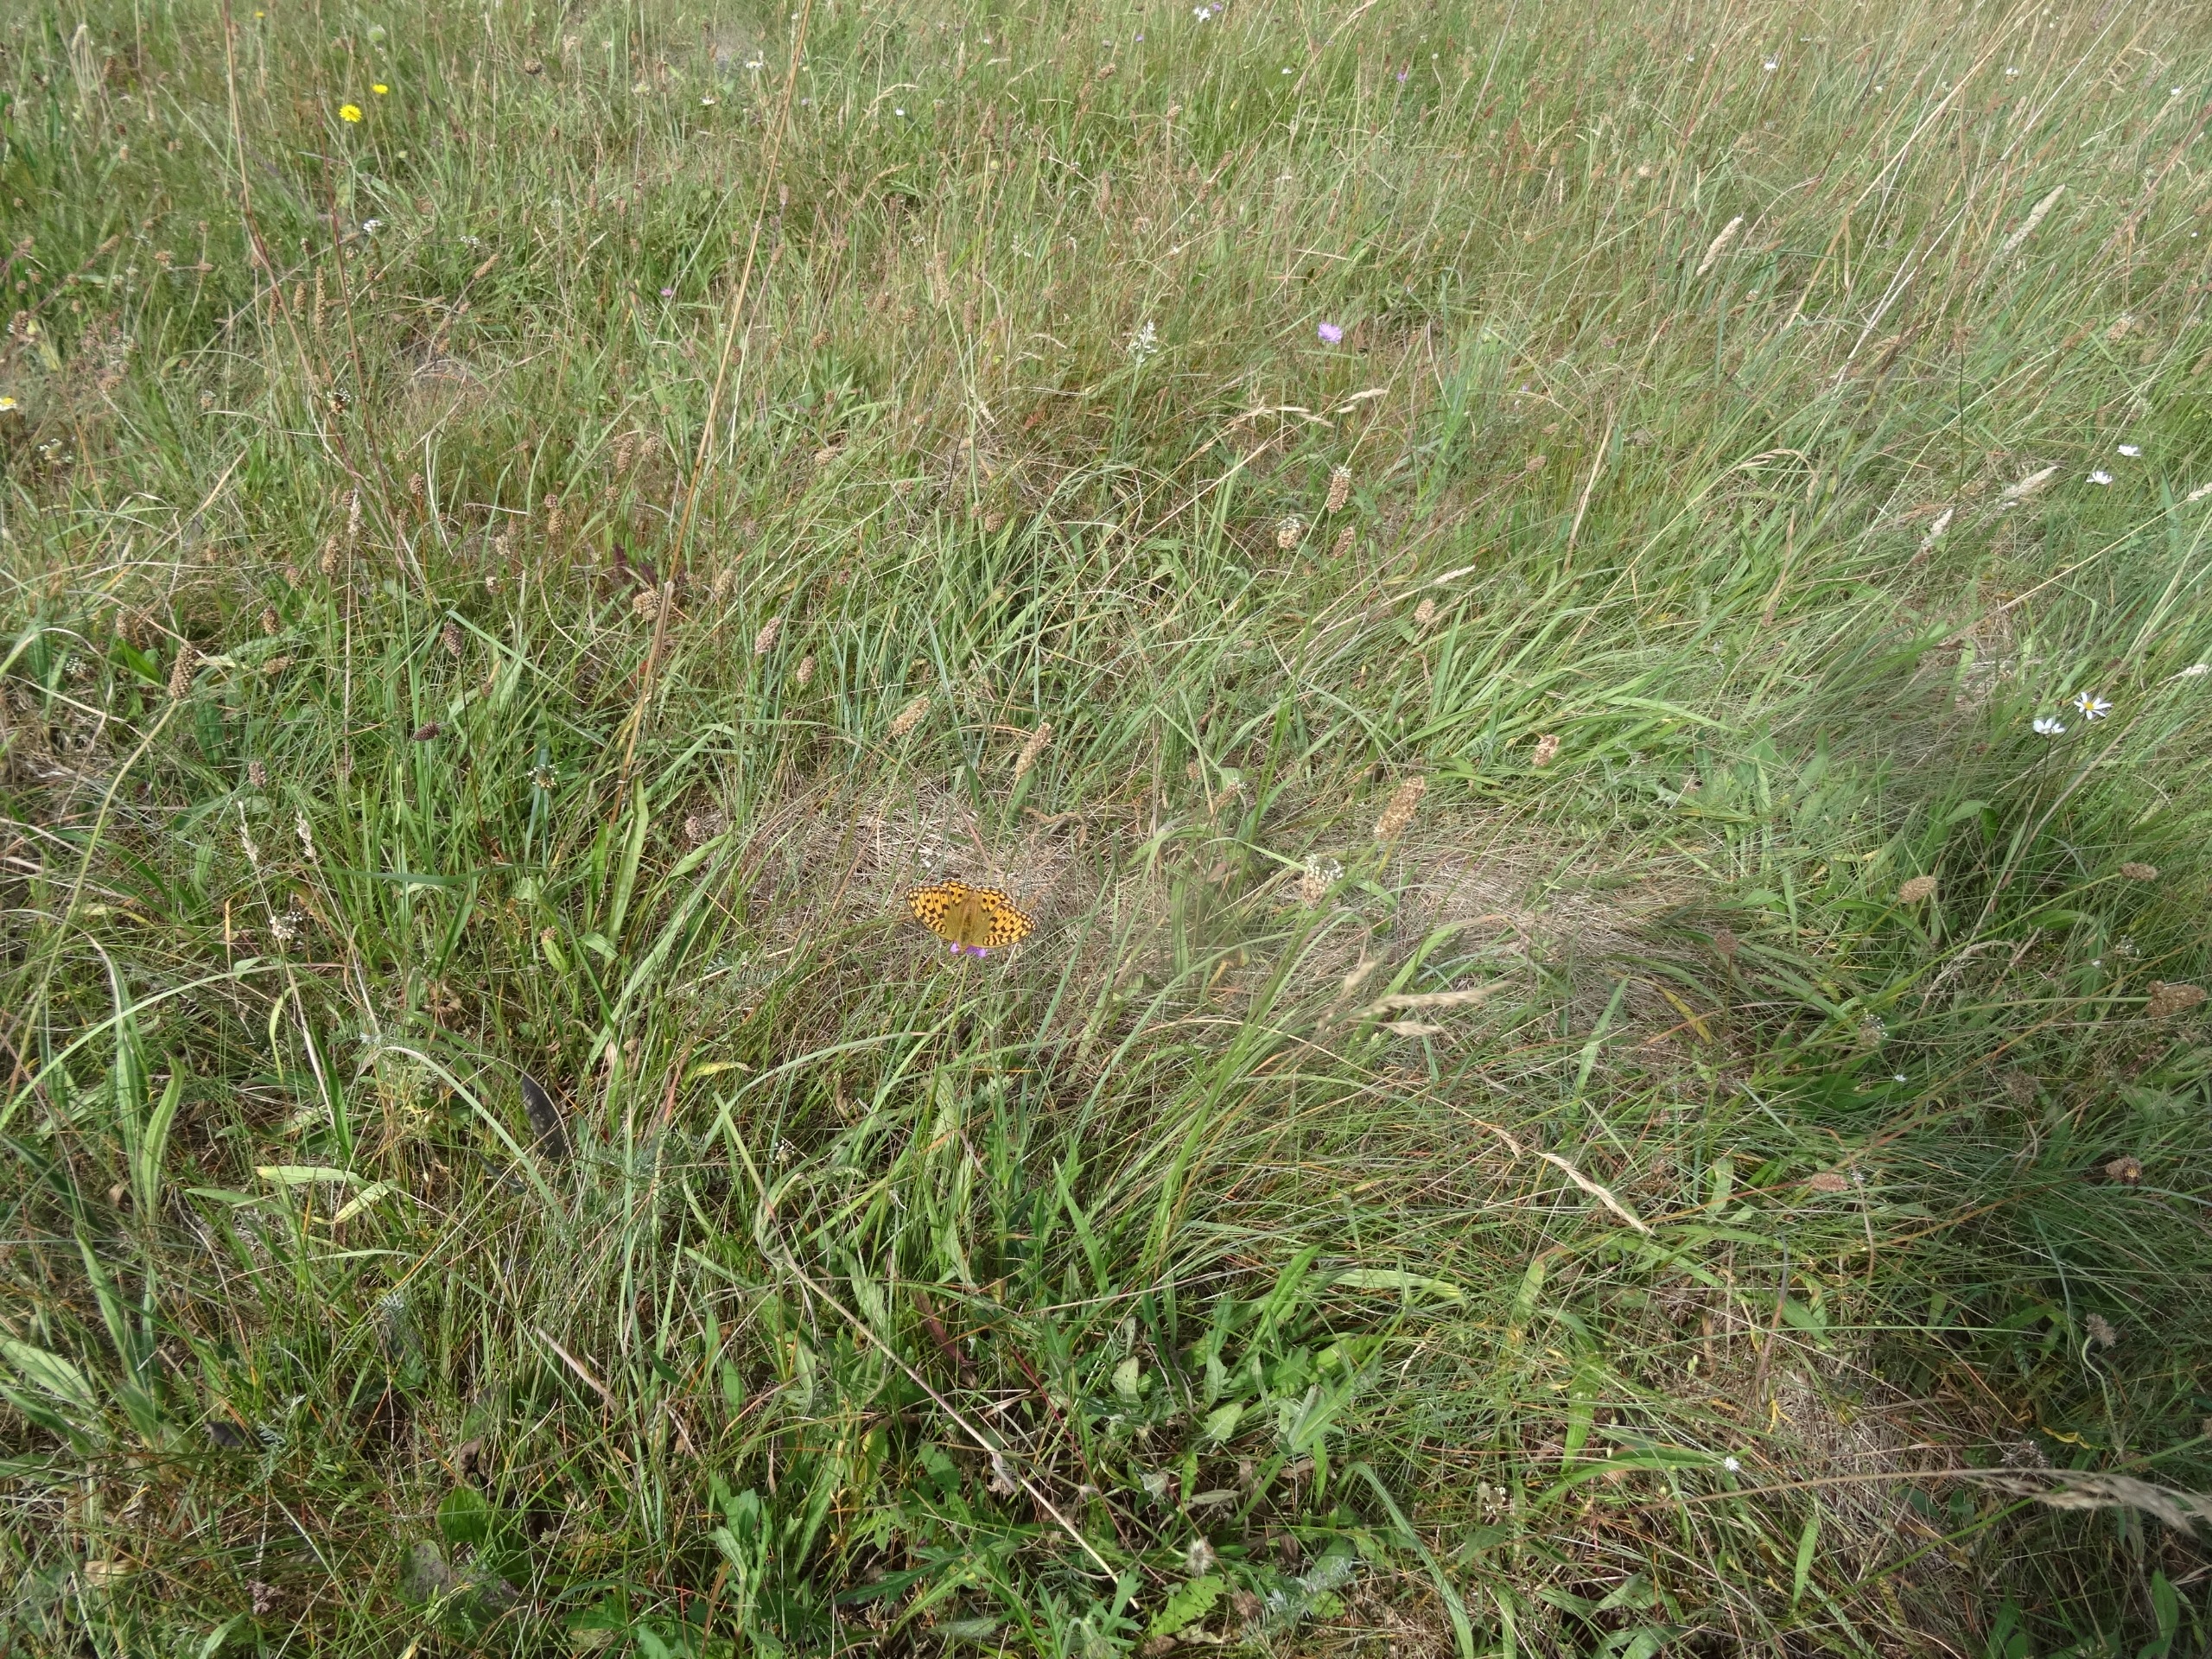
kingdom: Animalia
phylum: Arthropoda
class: Insecta
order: Lepidoptera
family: Nymphalidae
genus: Fabriciana
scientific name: Fabriciana adippe
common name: Skovperlemorsommerfugl
